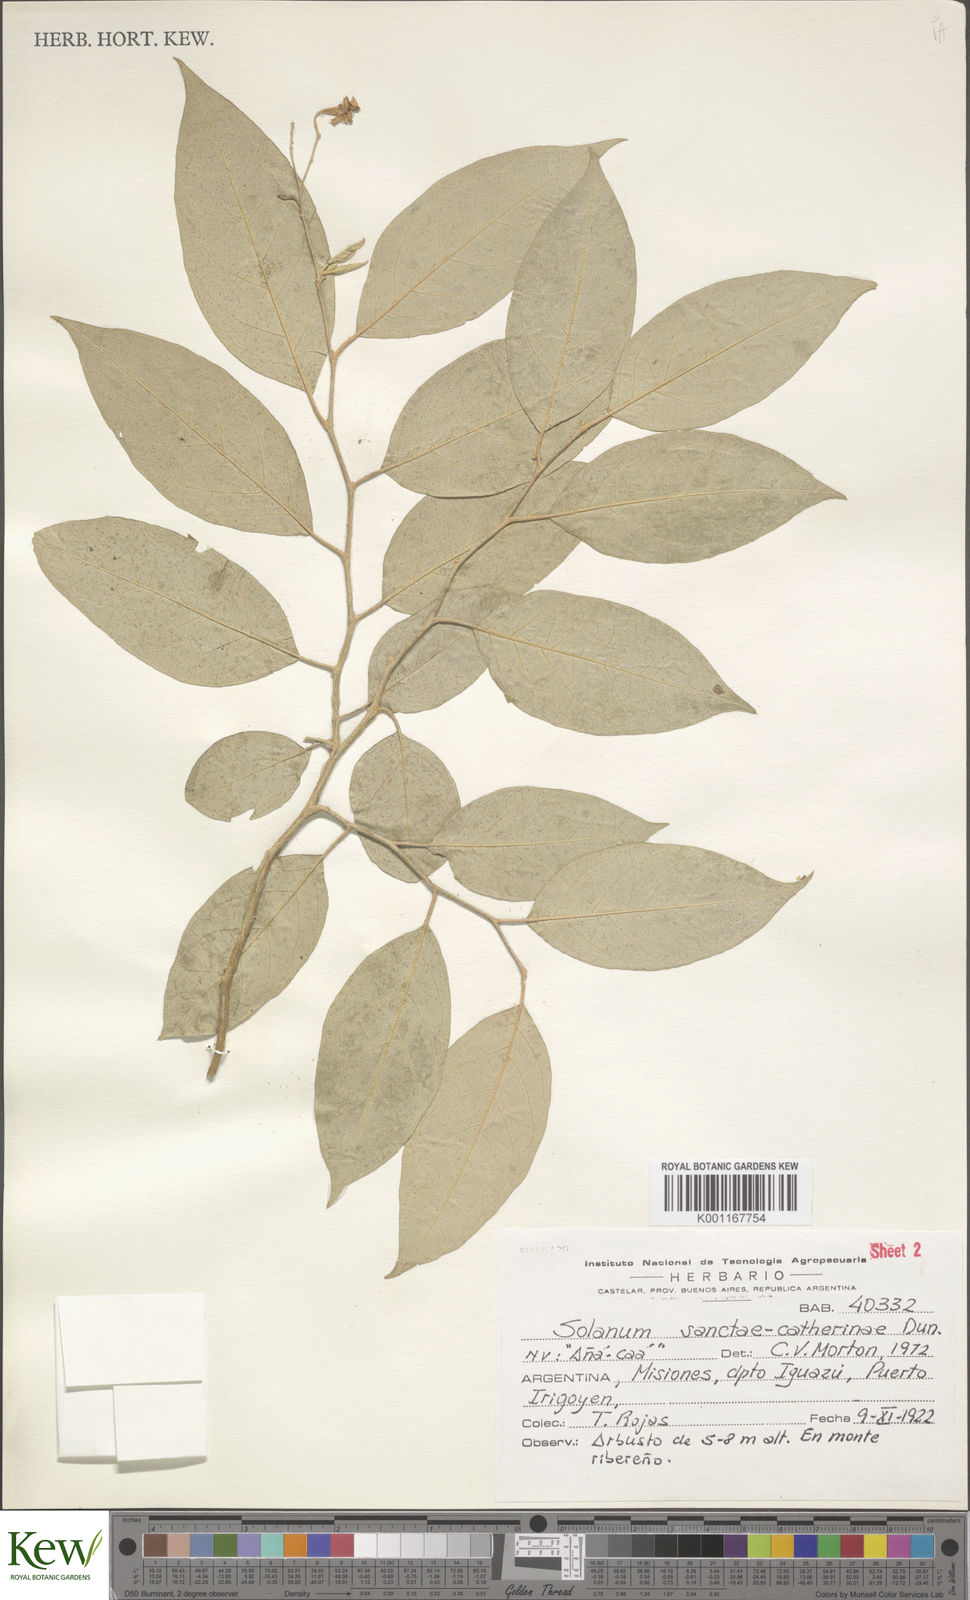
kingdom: Plantae
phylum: Tracheophyta
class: Magnoliopsida
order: Solanales
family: Solanaceae
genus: Solanum
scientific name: Solanum sanctae-catharinae
